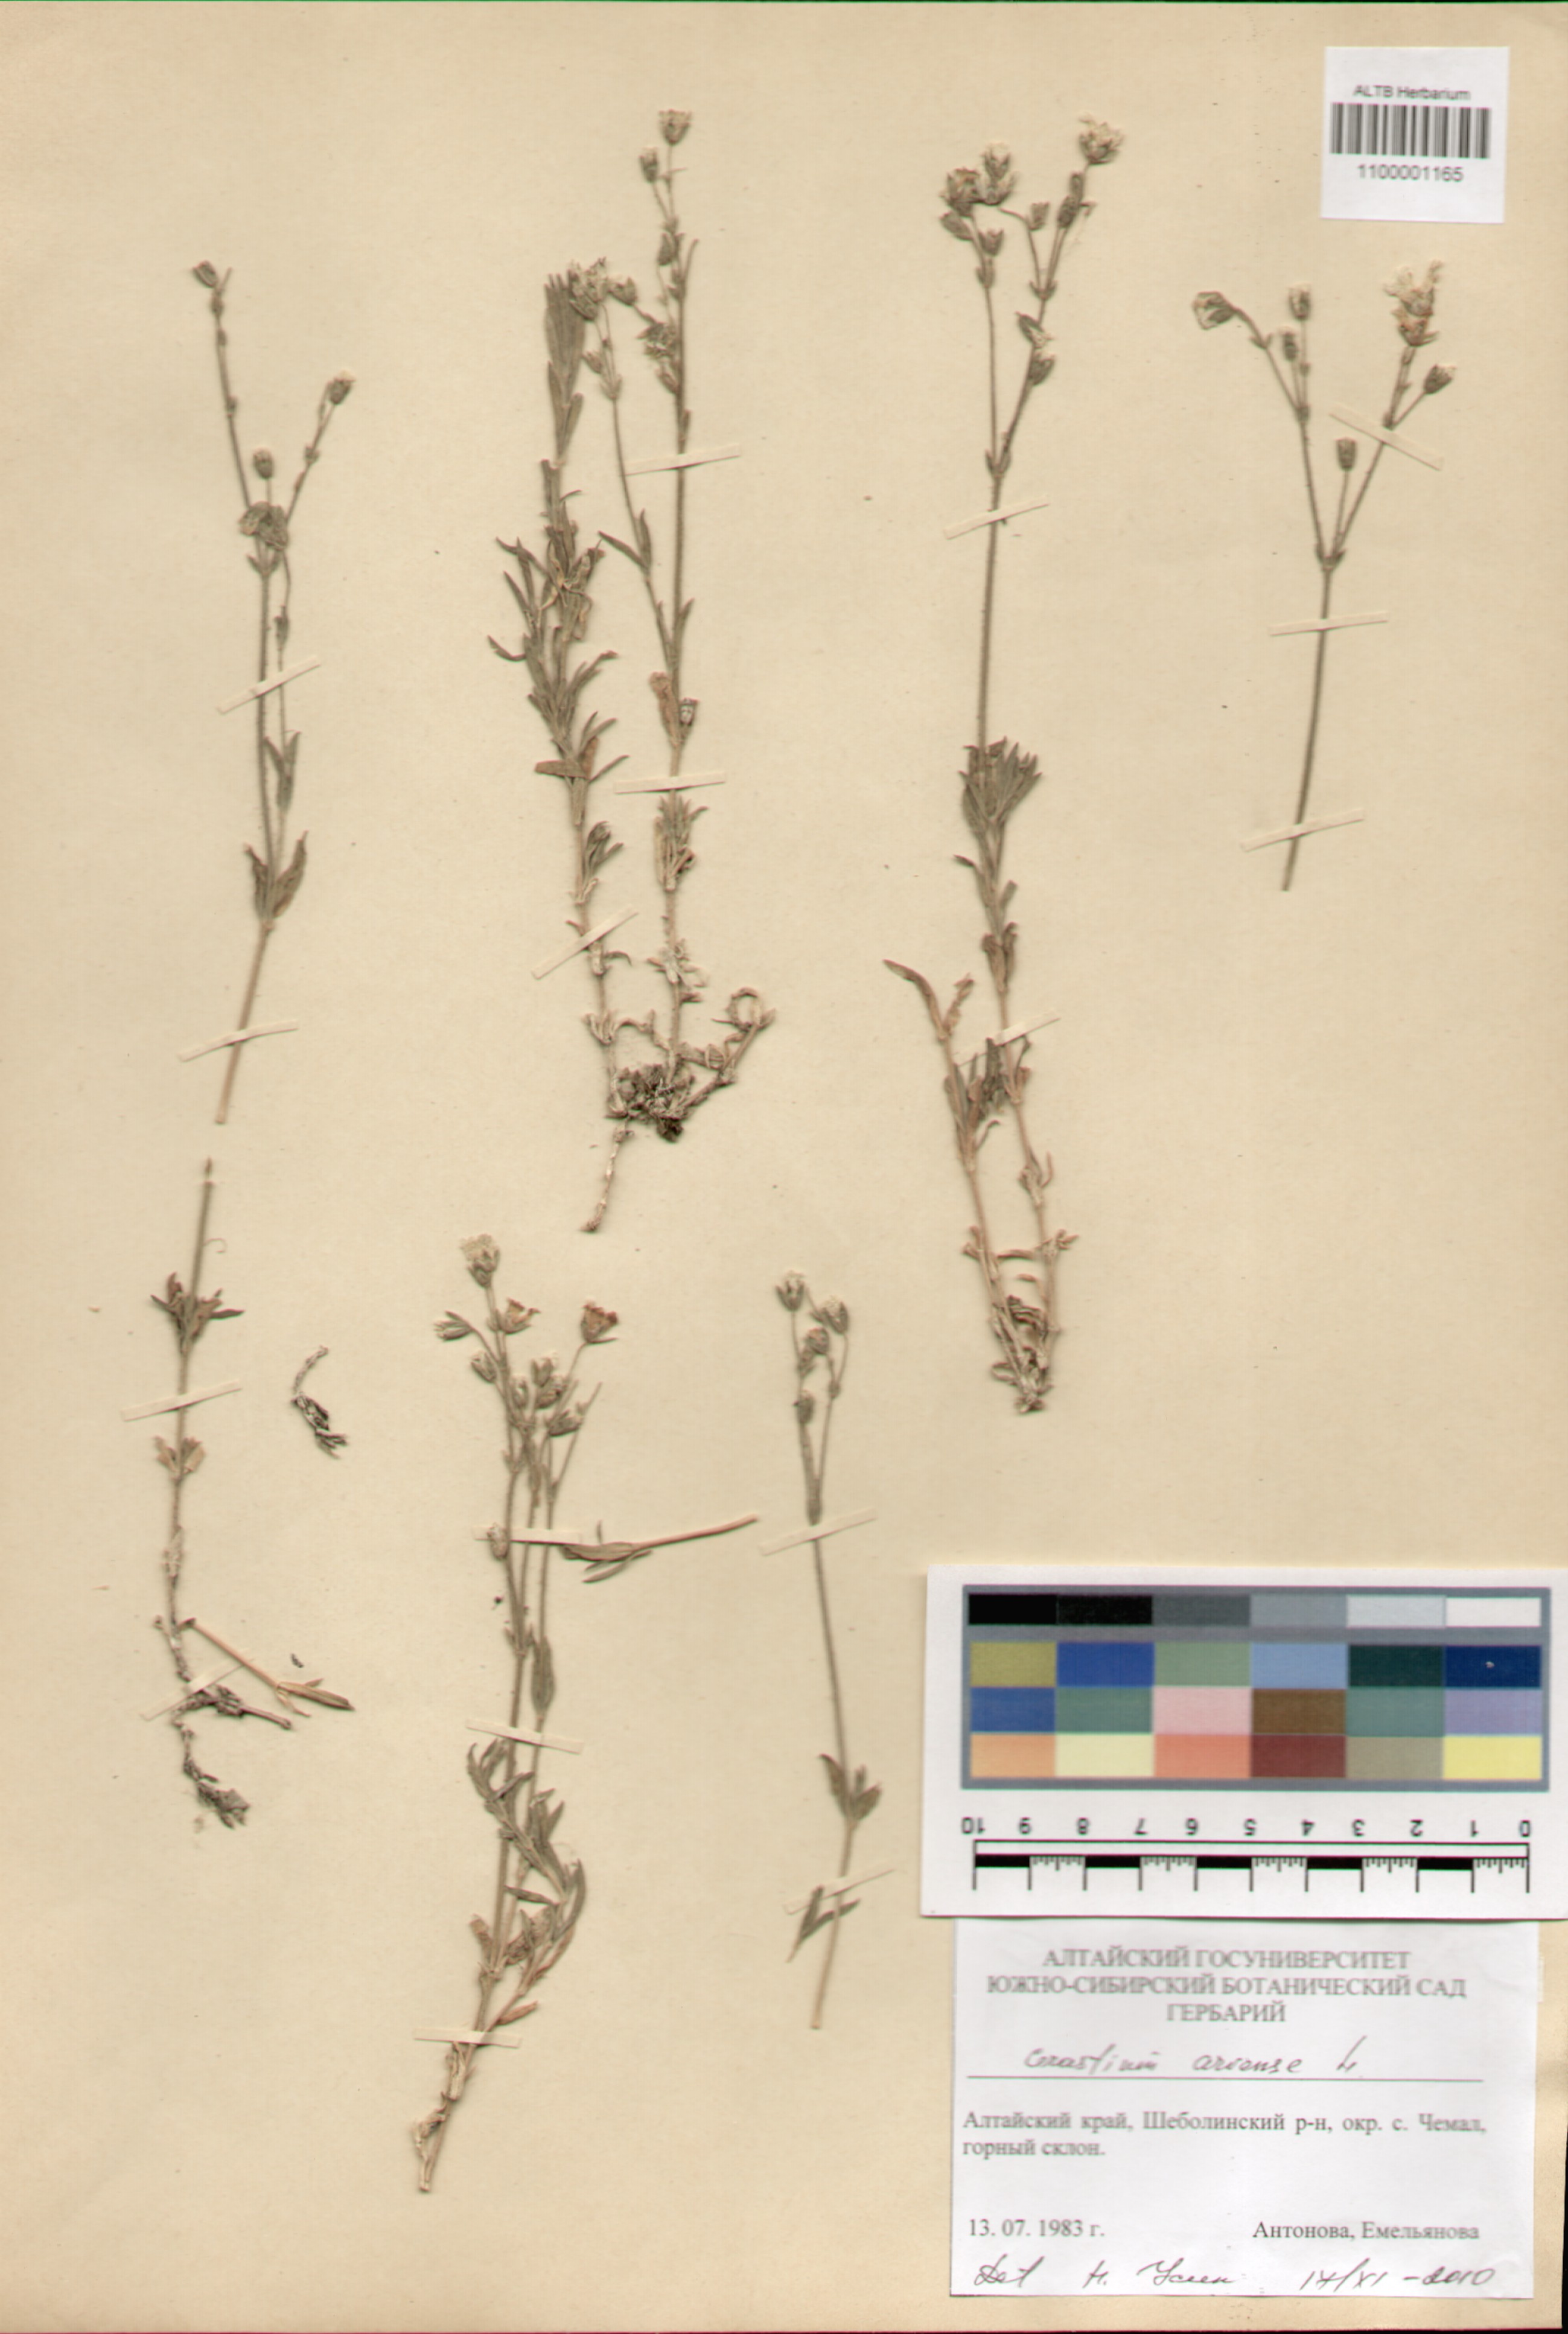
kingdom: Plantae
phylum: Tracheophyta
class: Magnoliopsida
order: Caryophyllales
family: Caryophyllaceae
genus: Cerastium
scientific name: Cerastium arvense
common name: Field mouse-ear
